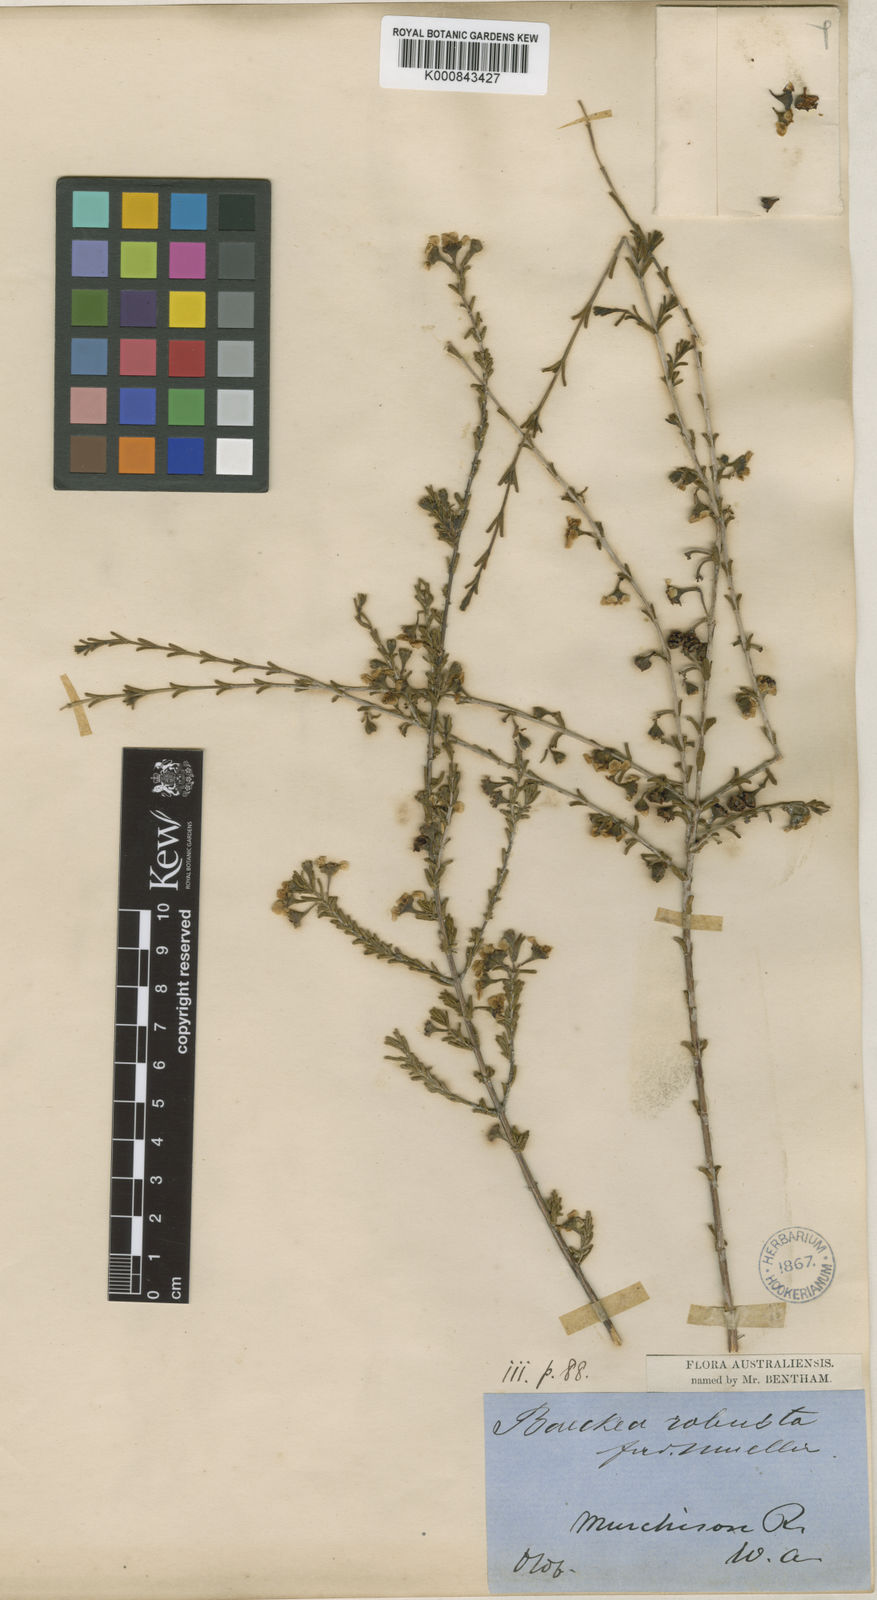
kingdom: Plantae
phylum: Tracheophyta
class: Magnoliopsida
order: Myrtales
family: Myrtaceae
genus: Baeckea
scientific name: Baeckea robusta
